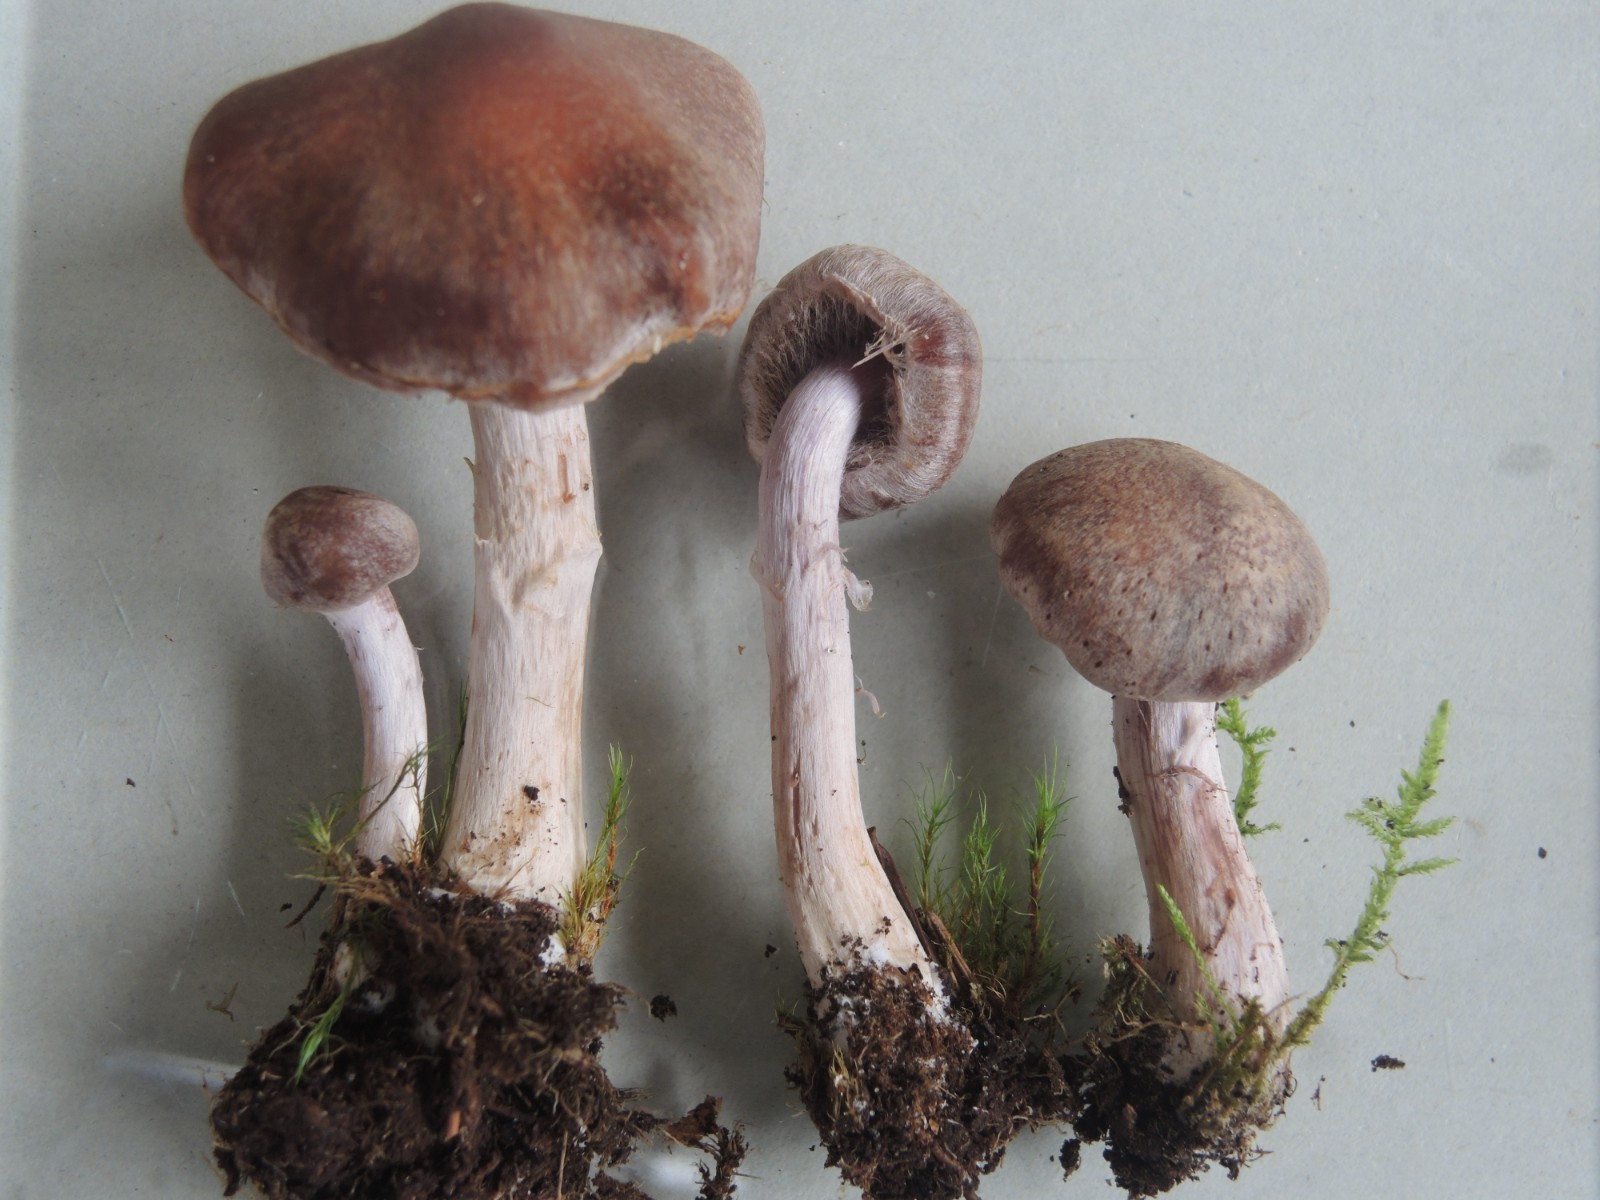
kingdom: Fungi
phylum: Basidiomycota
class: Agaricomycetes
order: Agaricales
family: Cortinariaceae
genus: Cortinarius
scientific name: Cortinarius
